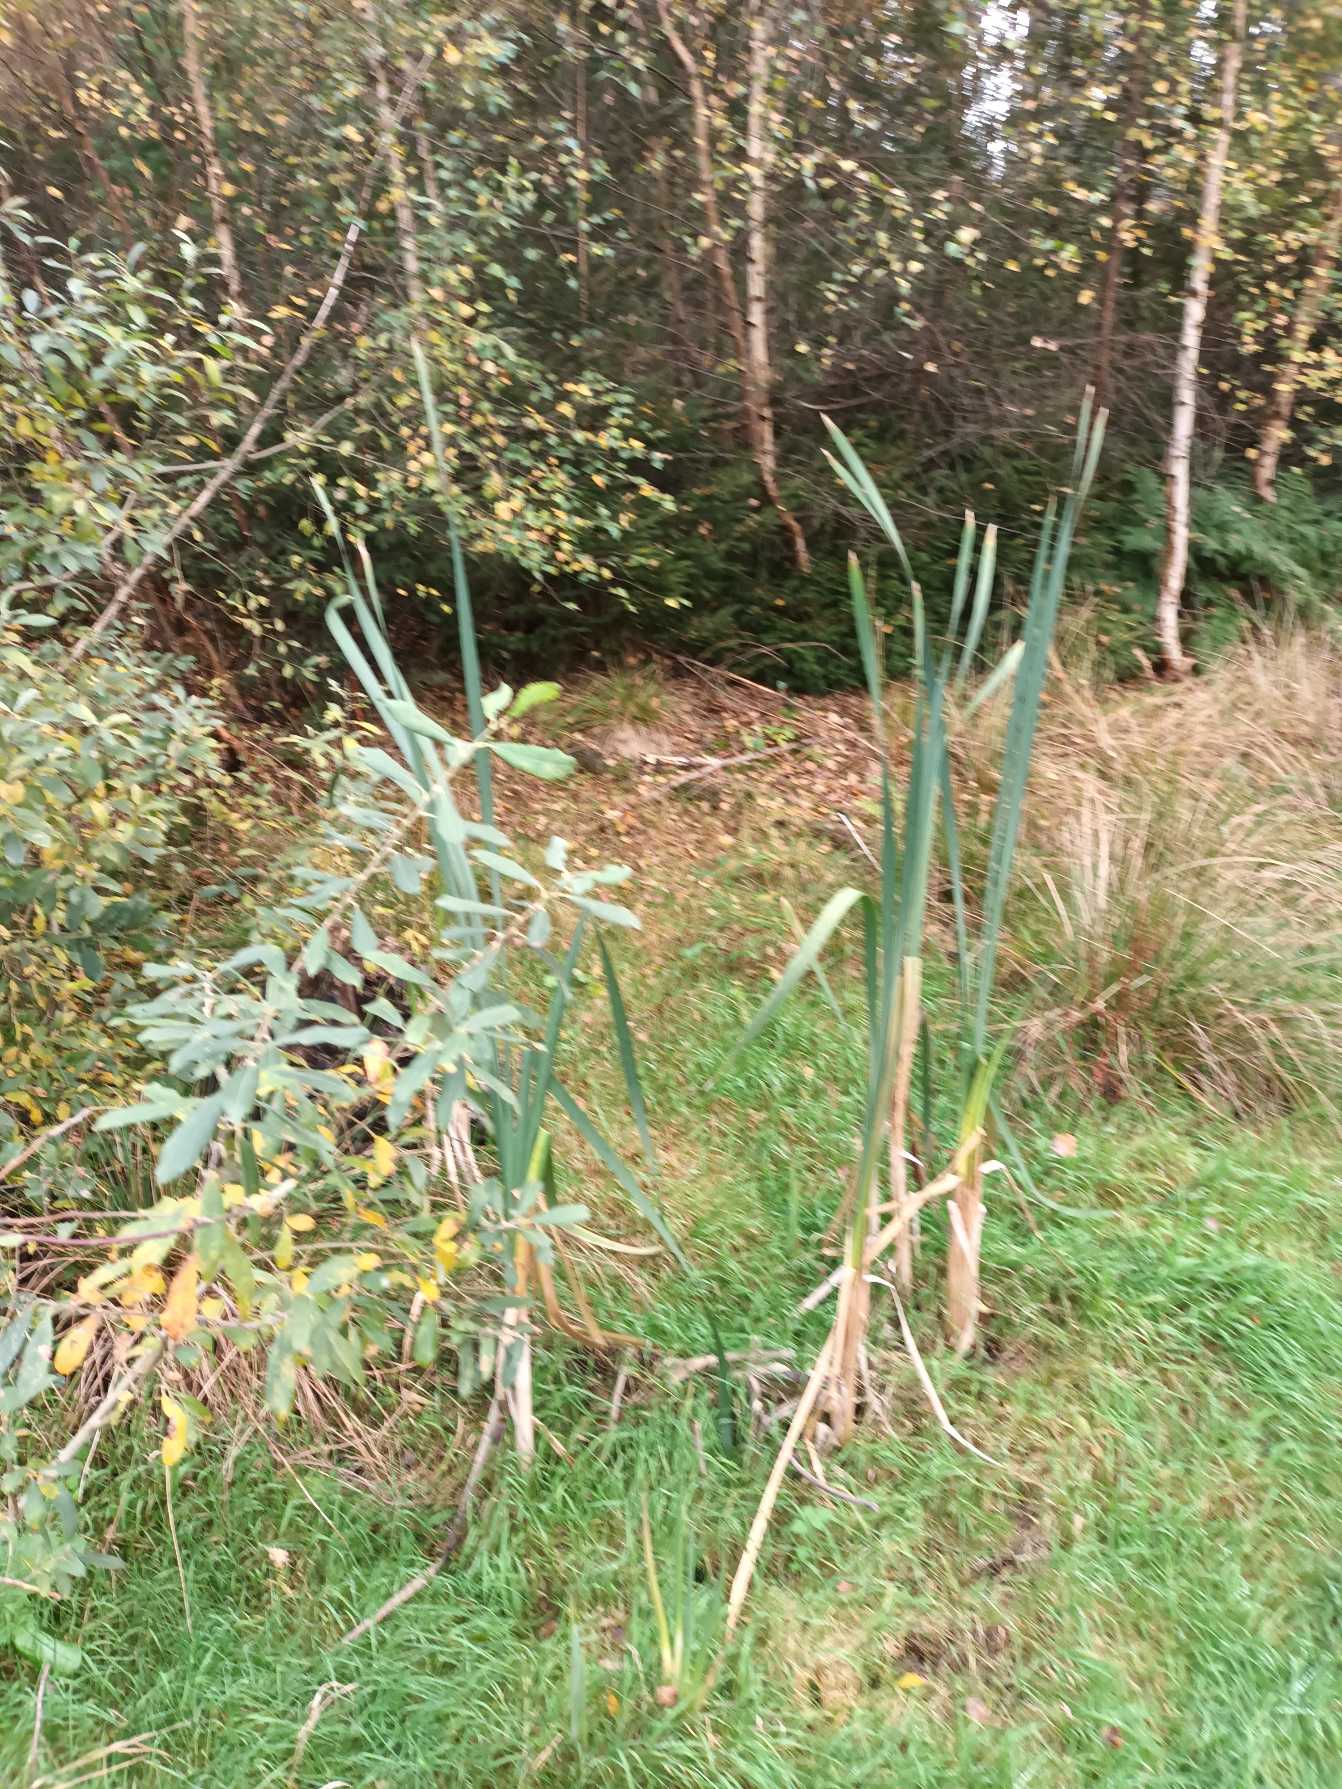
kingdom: Plantae
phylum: Tracheophyta
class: Liliopsida
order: Poales
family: Typhaceae
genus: Typha
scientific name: Typha latifolia
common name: Bredbladet dunhammer
